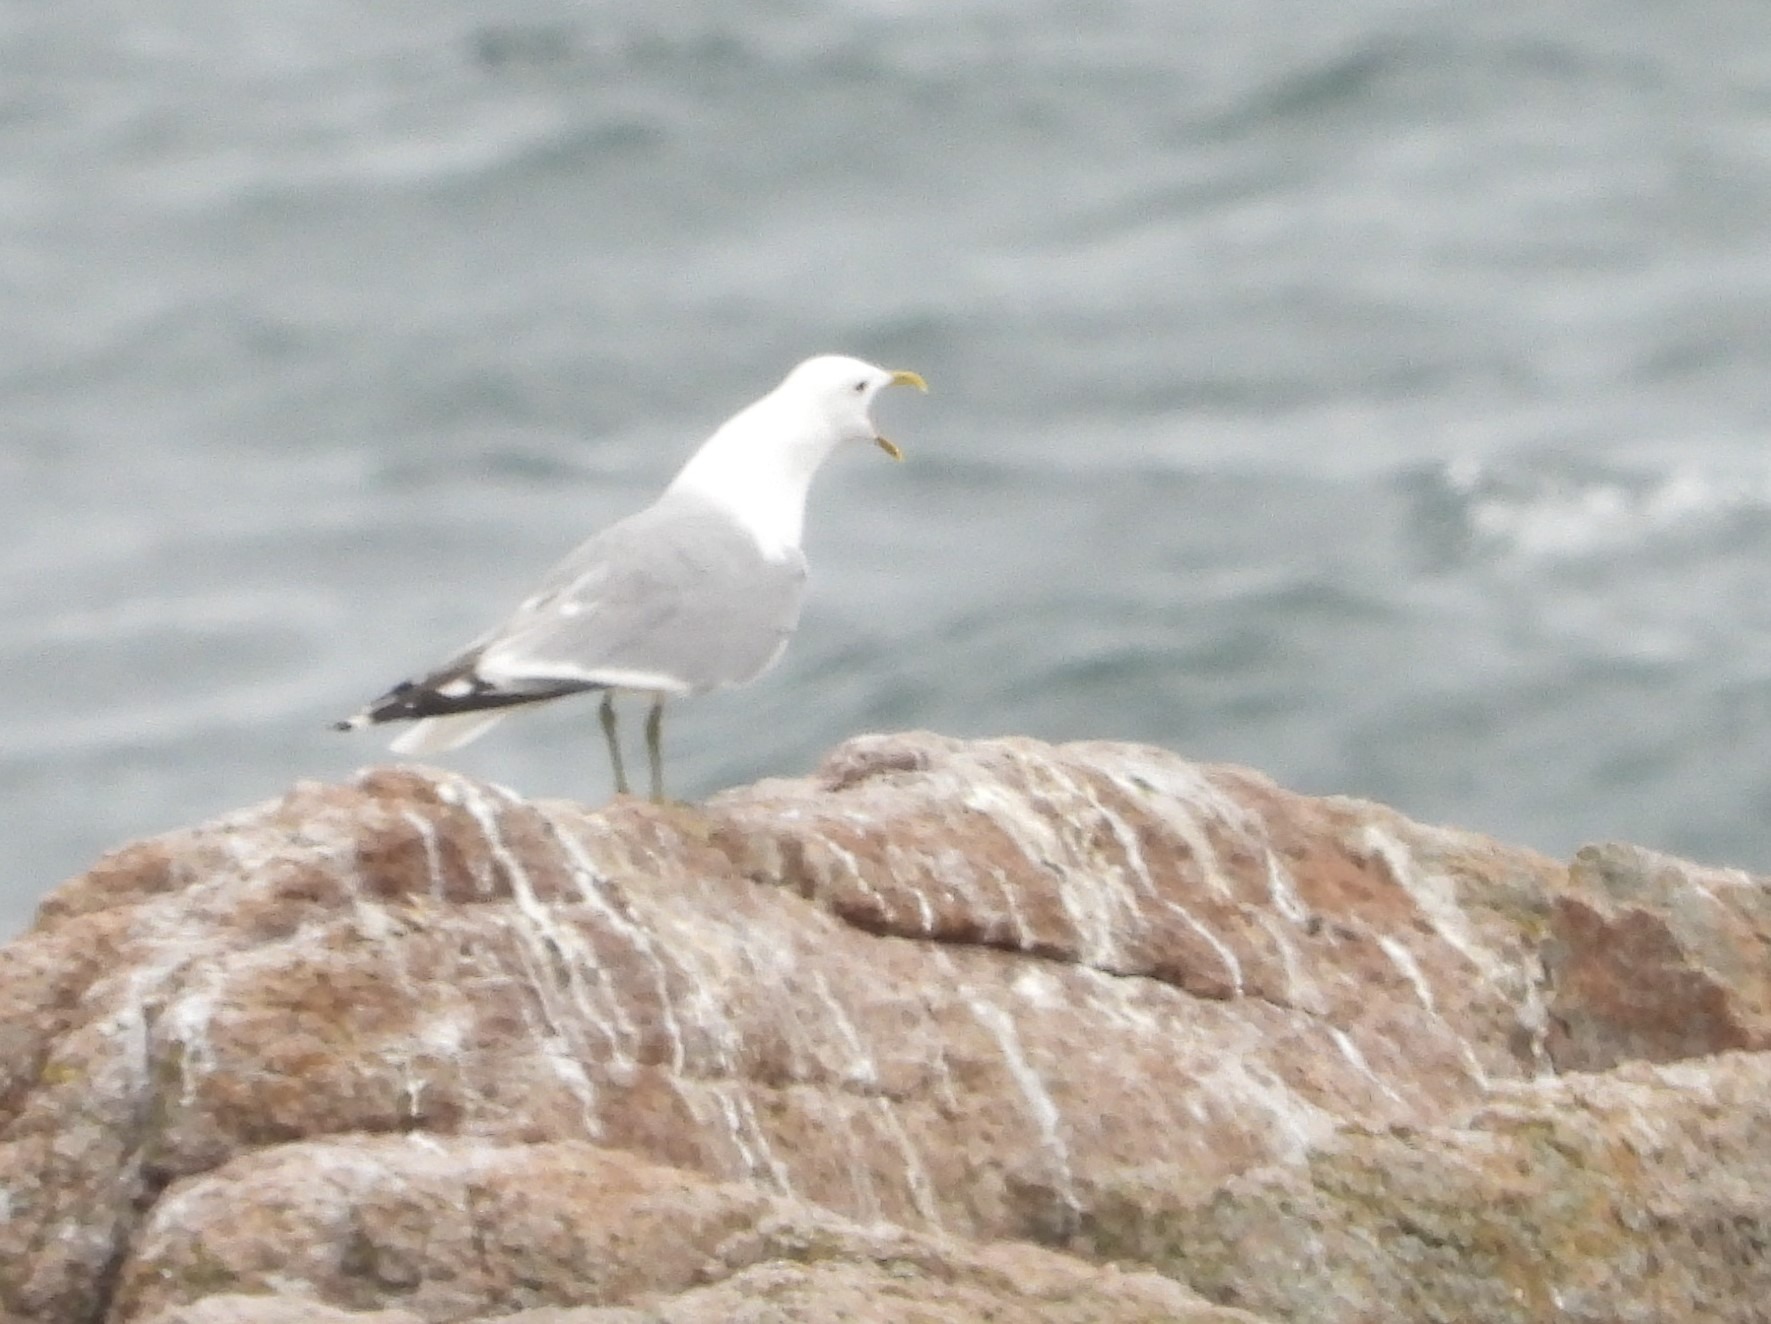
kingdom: Animalia
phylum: Chordata
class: Aves
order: Charadriiformes
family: Laridae
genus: Larus
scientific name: Larus canus
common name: Stormmåge
